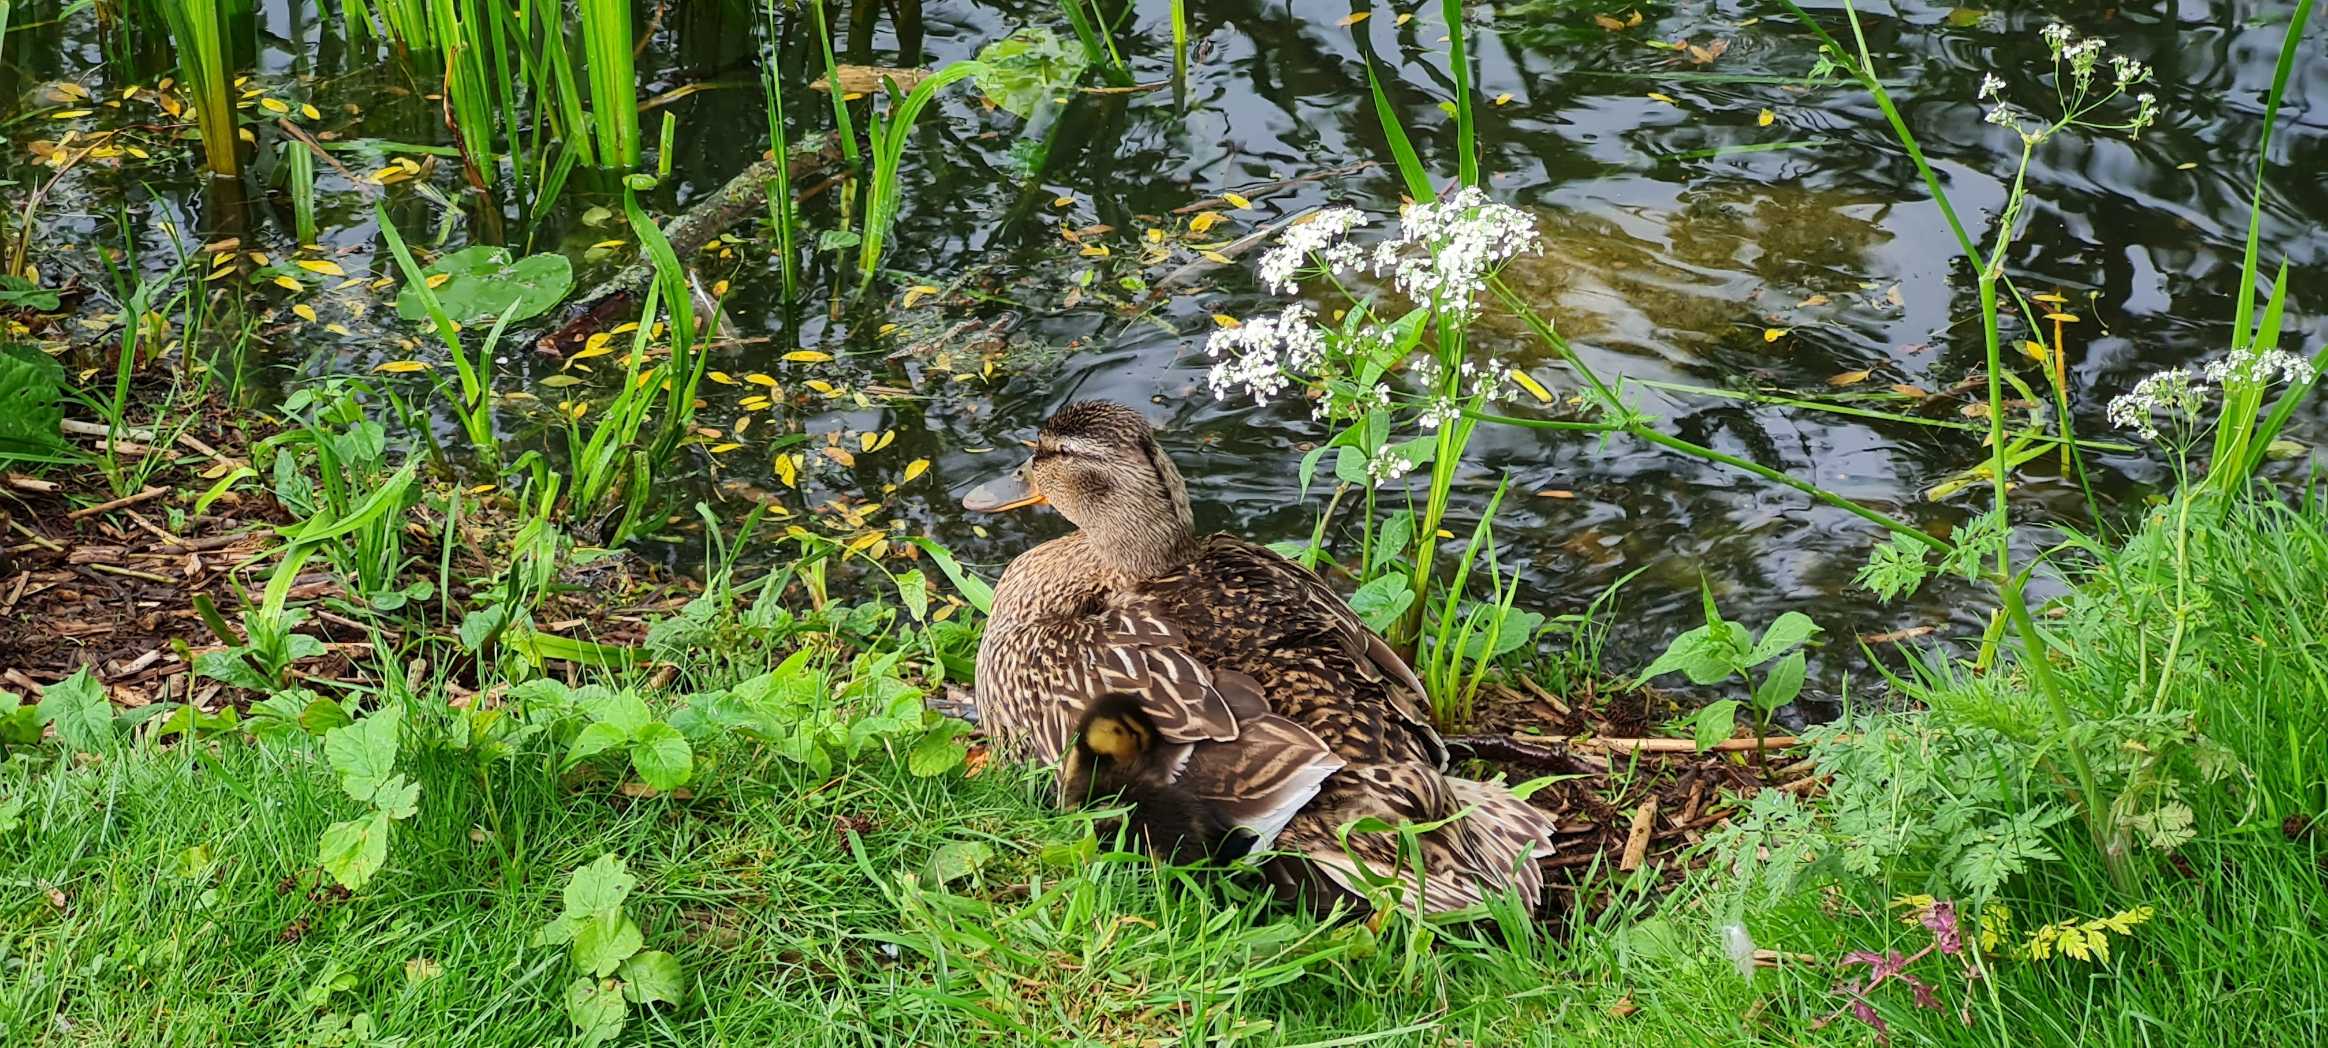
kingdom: Animalia
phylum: Chordata
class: Aves
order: Anseriformes
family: Anatidae
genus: Anas
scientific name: Anas platyrhynchos
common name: Gråand
